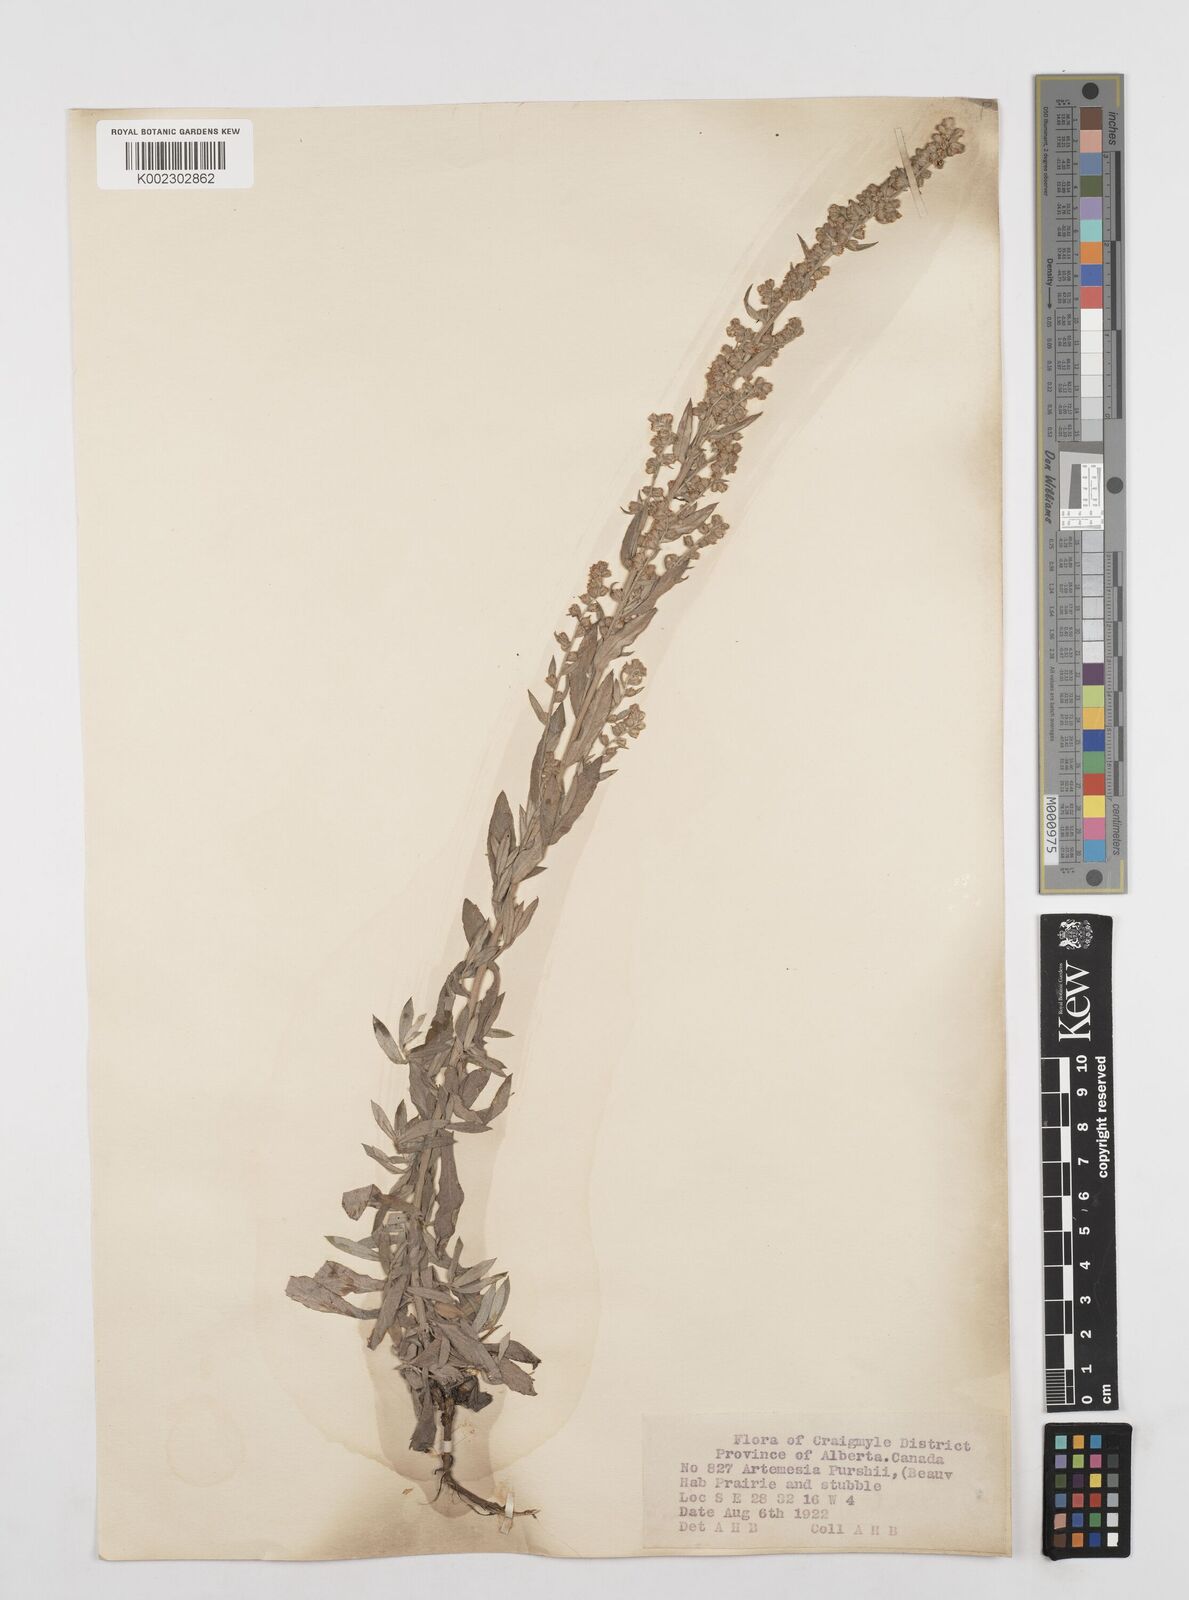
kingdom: Plantae
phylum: Tracheophyta
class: Magnoliopsida
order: Asterales
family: Asteraceae
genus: Artemisia
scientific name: Artemisia
